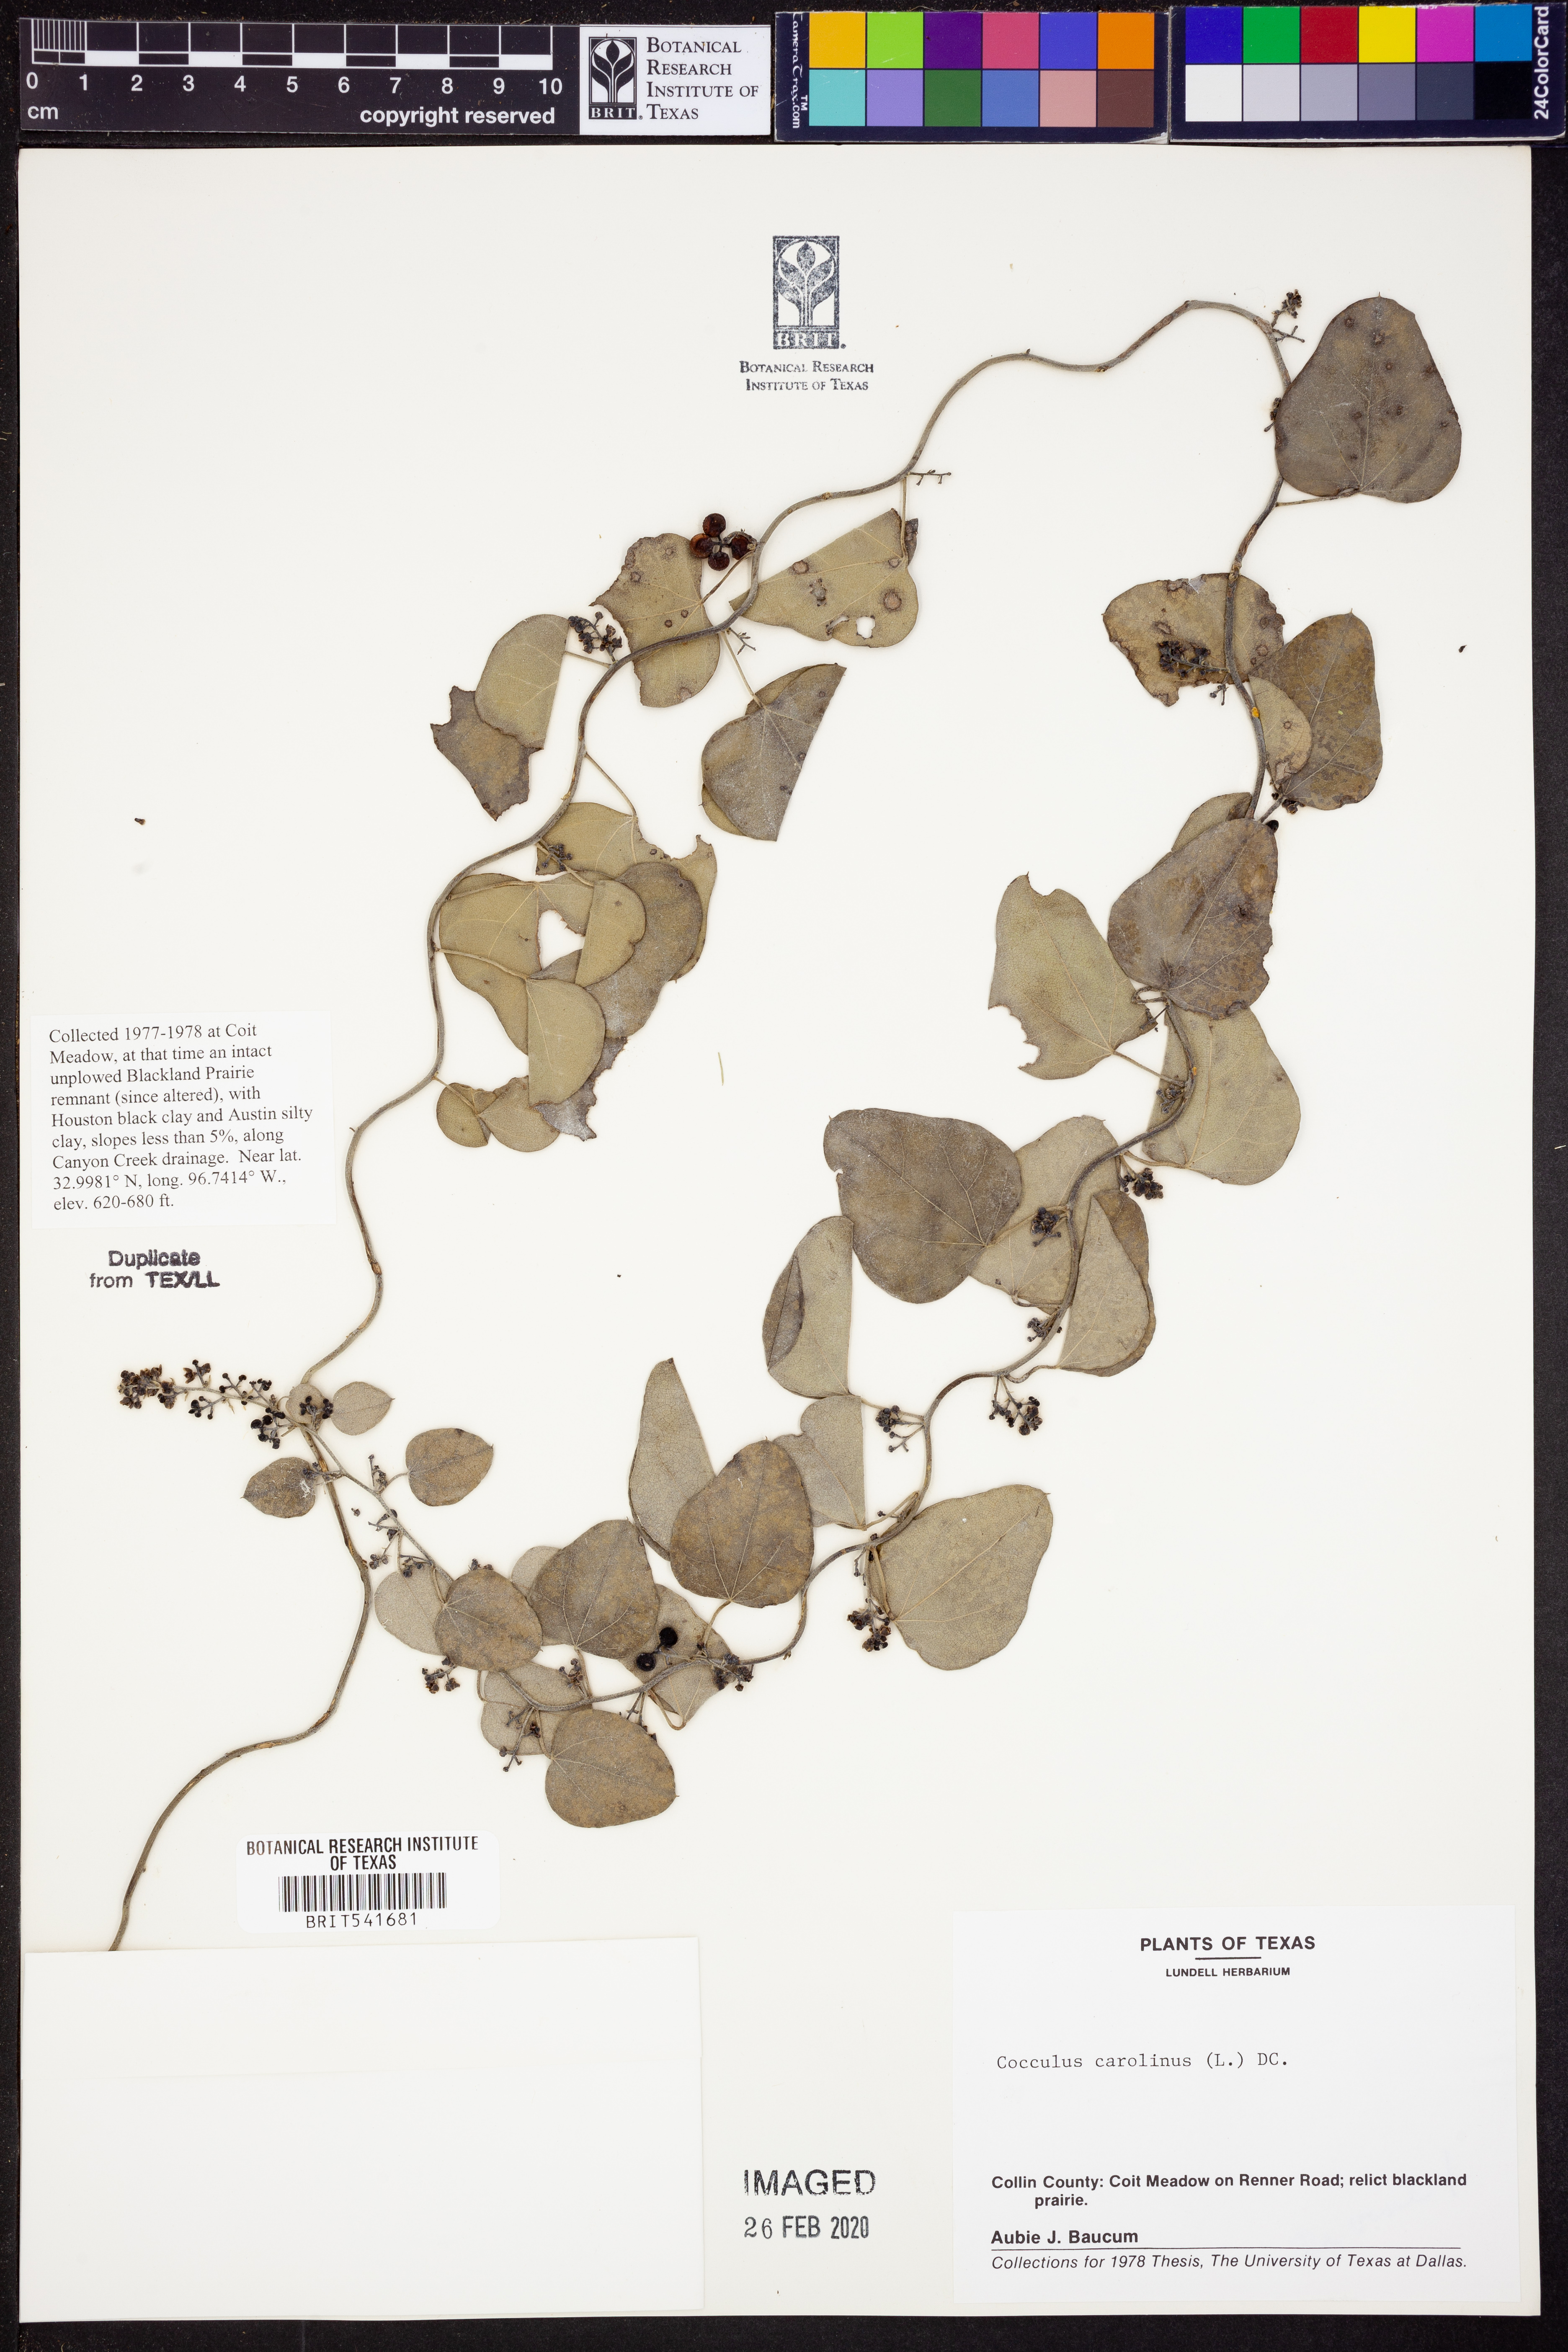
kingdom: Plantae
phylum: Tracheophyta
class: Magnoliopsida
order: Ranunculales
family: Menispermaceae
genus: Cocculus
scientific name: Cocculus carolinus
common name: Carolina moonseed
